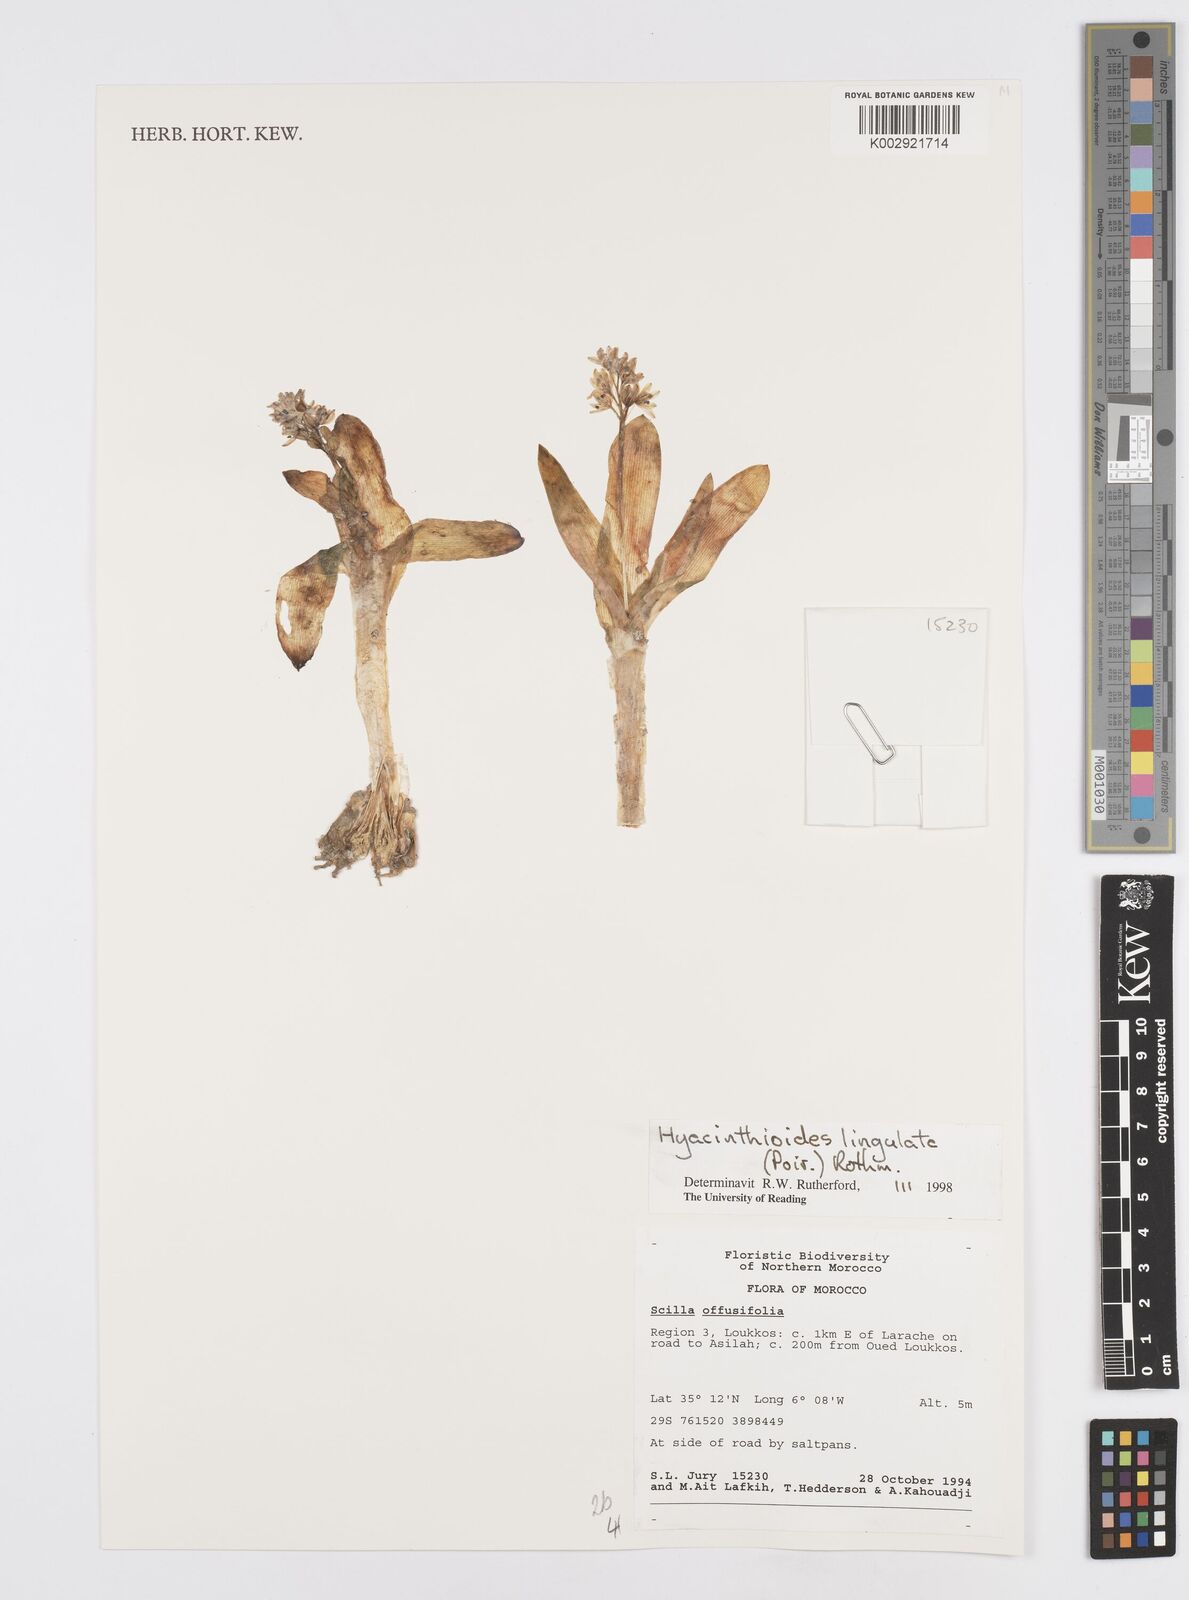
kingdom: Plantae
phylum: Tracheophyta
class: Liliopsida
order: Asparagales
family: Asparagaceae
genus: Hyacinthoides
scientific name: Hyacinthoides lingulata
